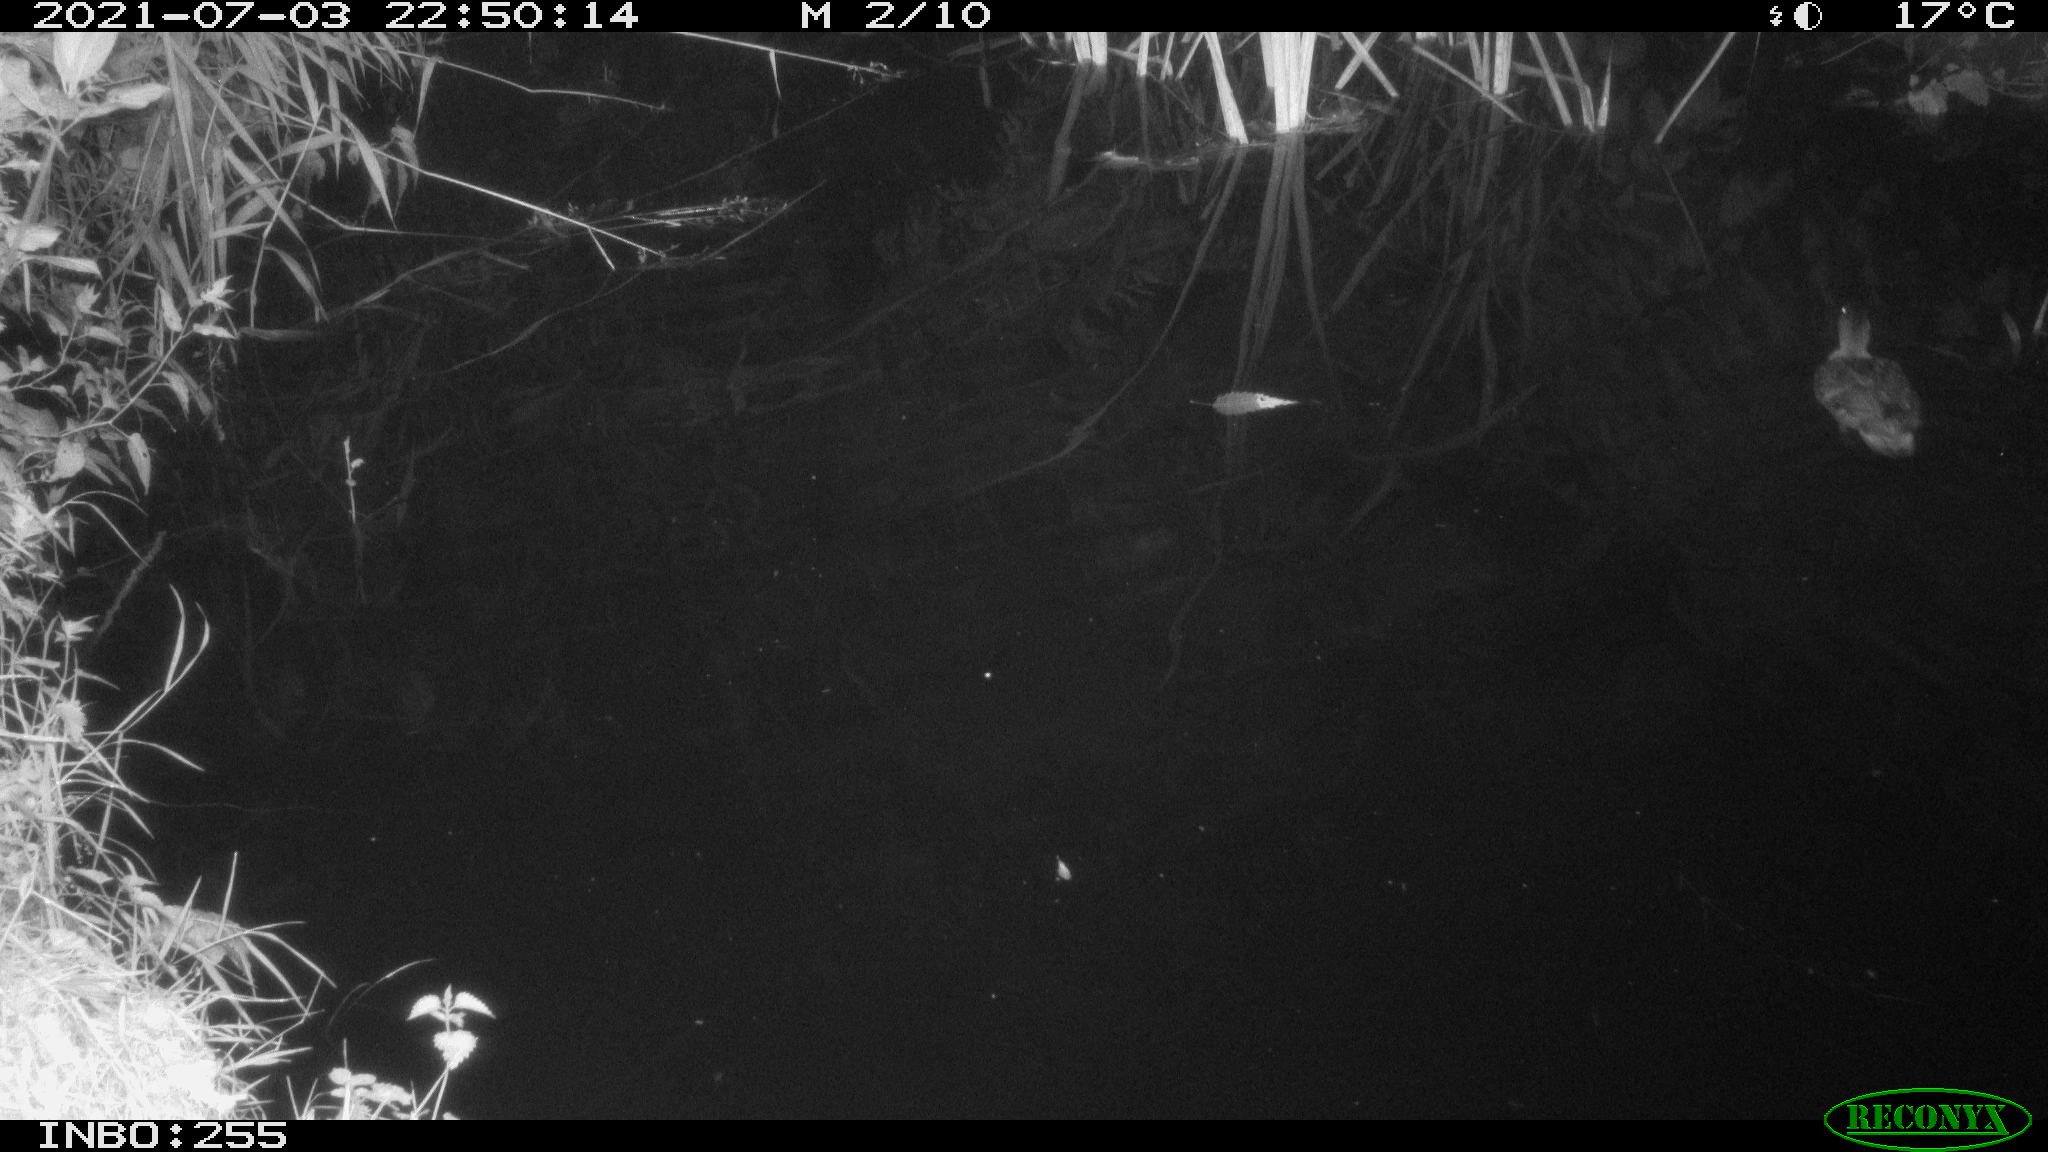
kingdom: Animalia
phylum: Chordata
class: Aves
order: Anseriformes
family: Anatidae
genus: Anas
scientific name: Anas platyrhynchos
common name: Mallard
